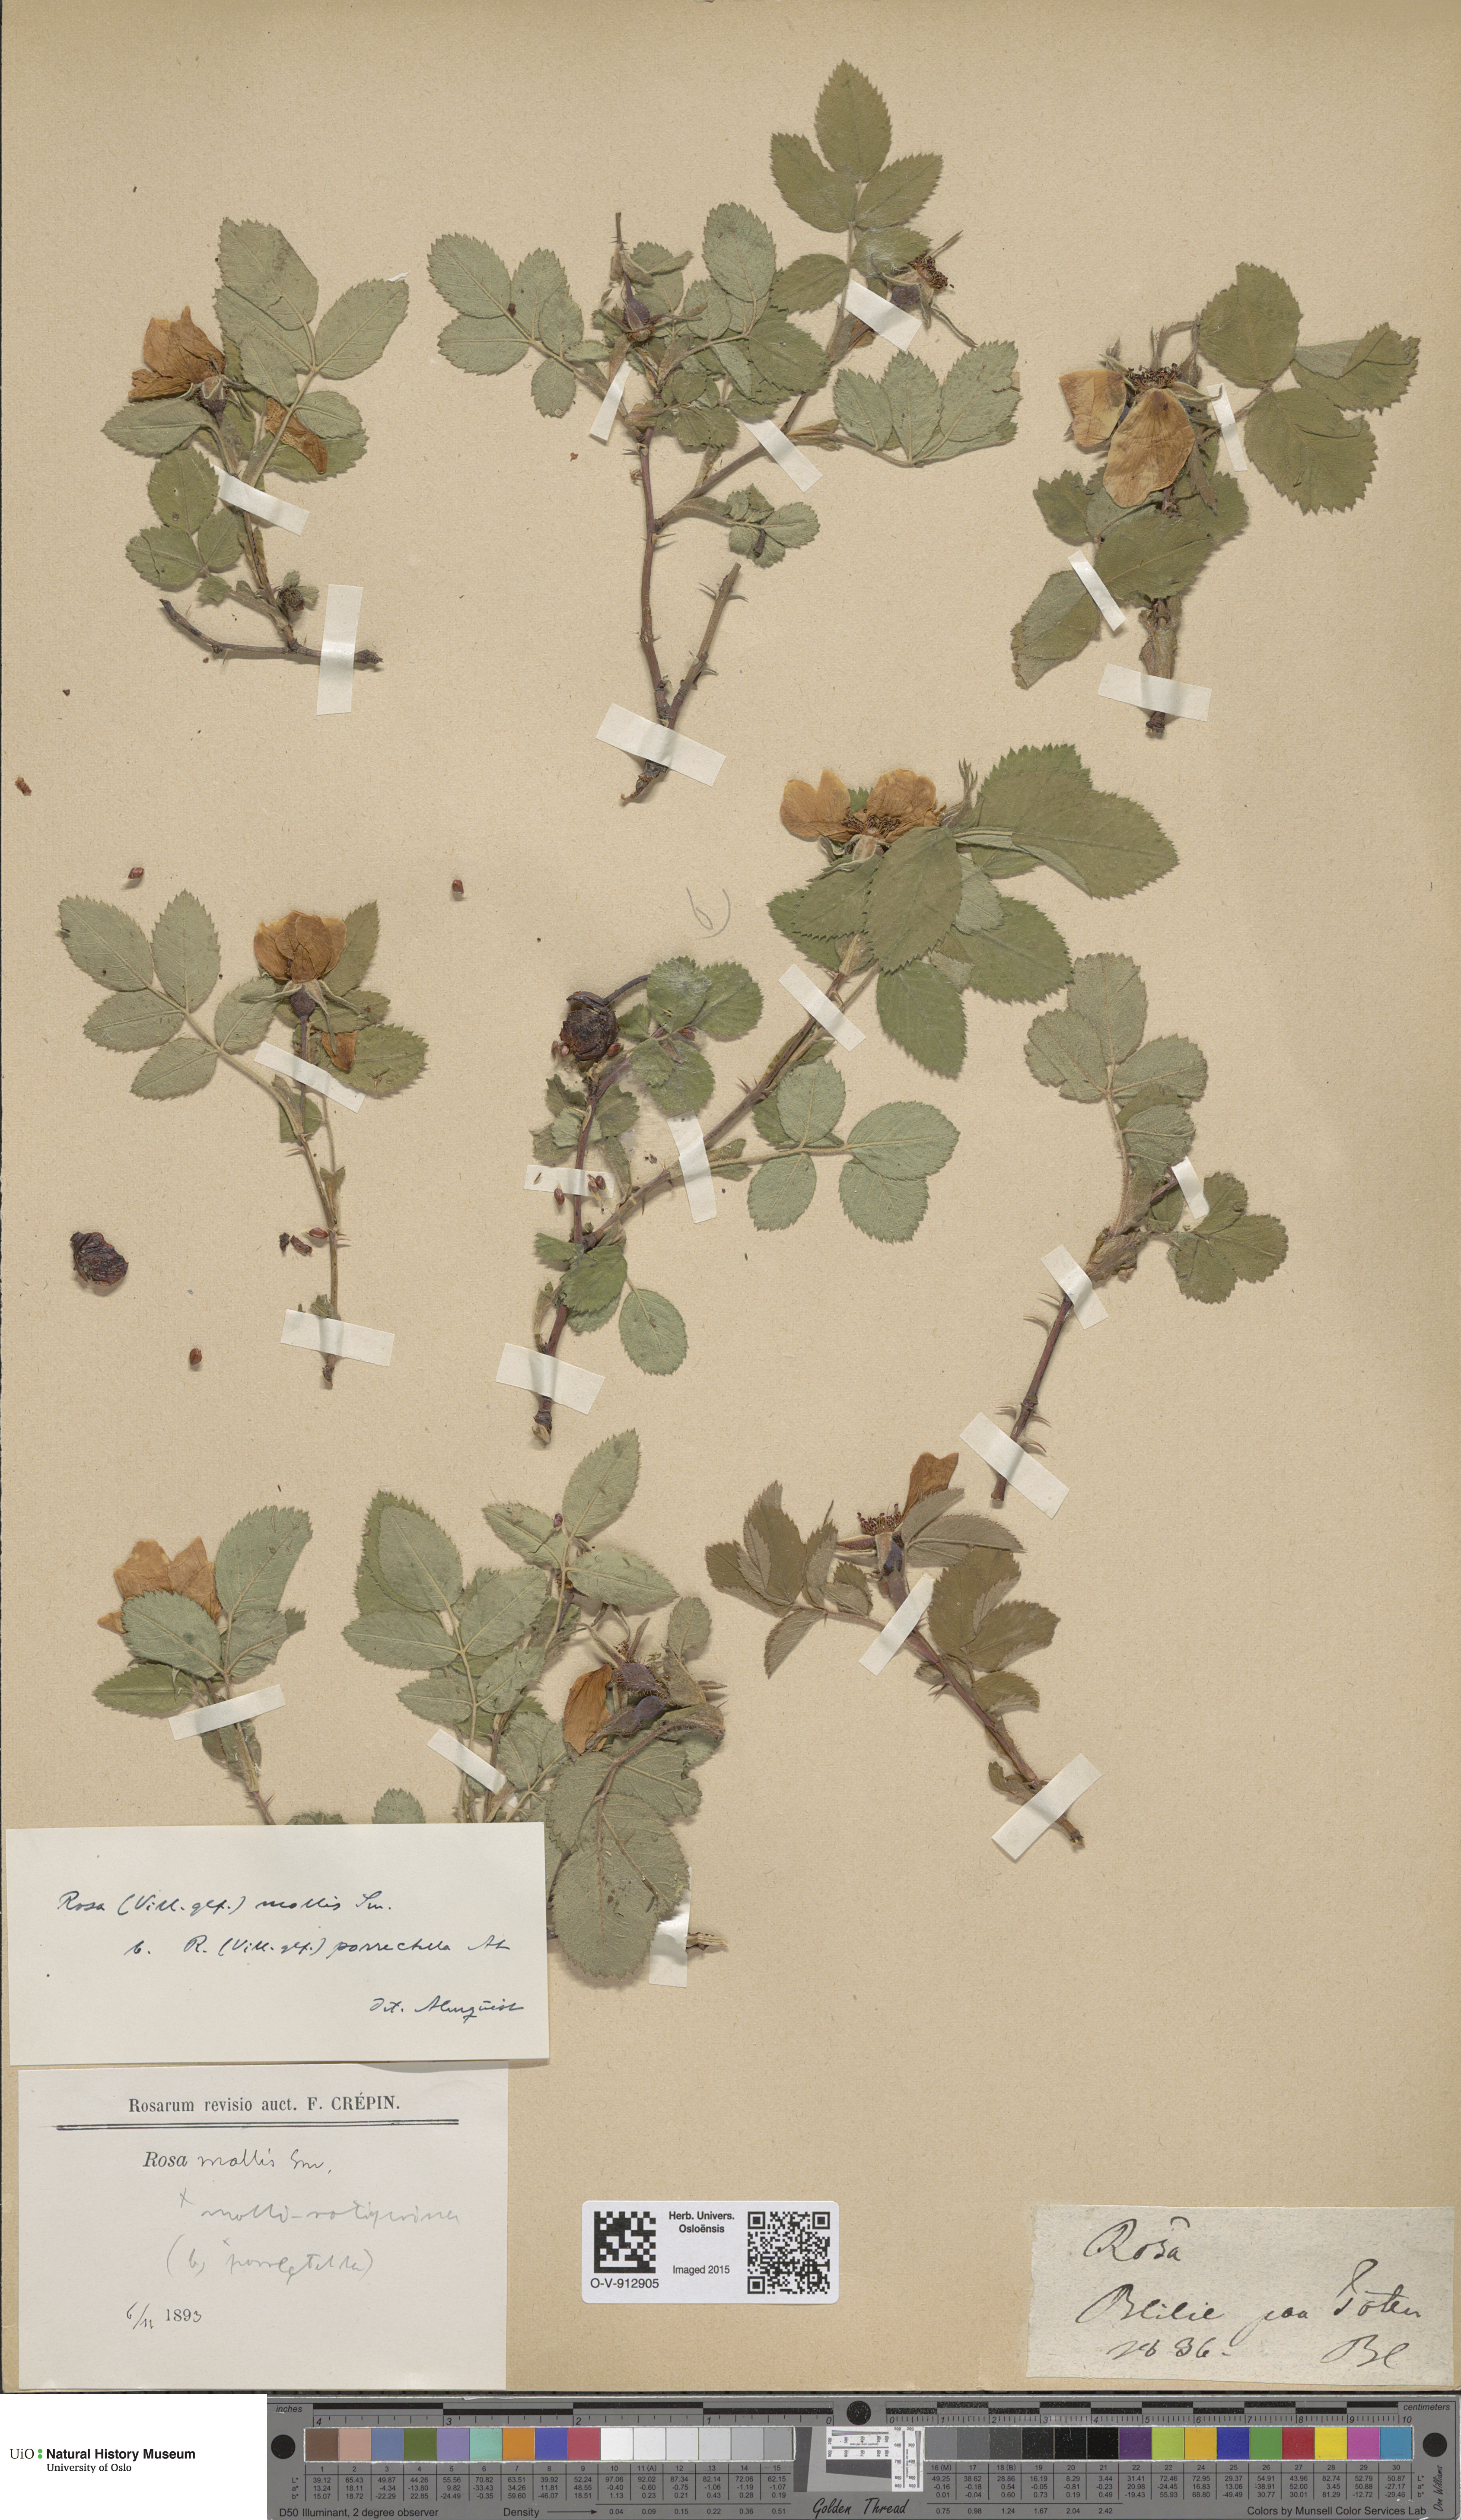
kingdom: Plantae
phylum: Tracheophyta
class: Magnoliopsida
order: Rosales
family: Rosaceae
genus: Rosa
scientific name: Rosa mollis
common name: Rose
